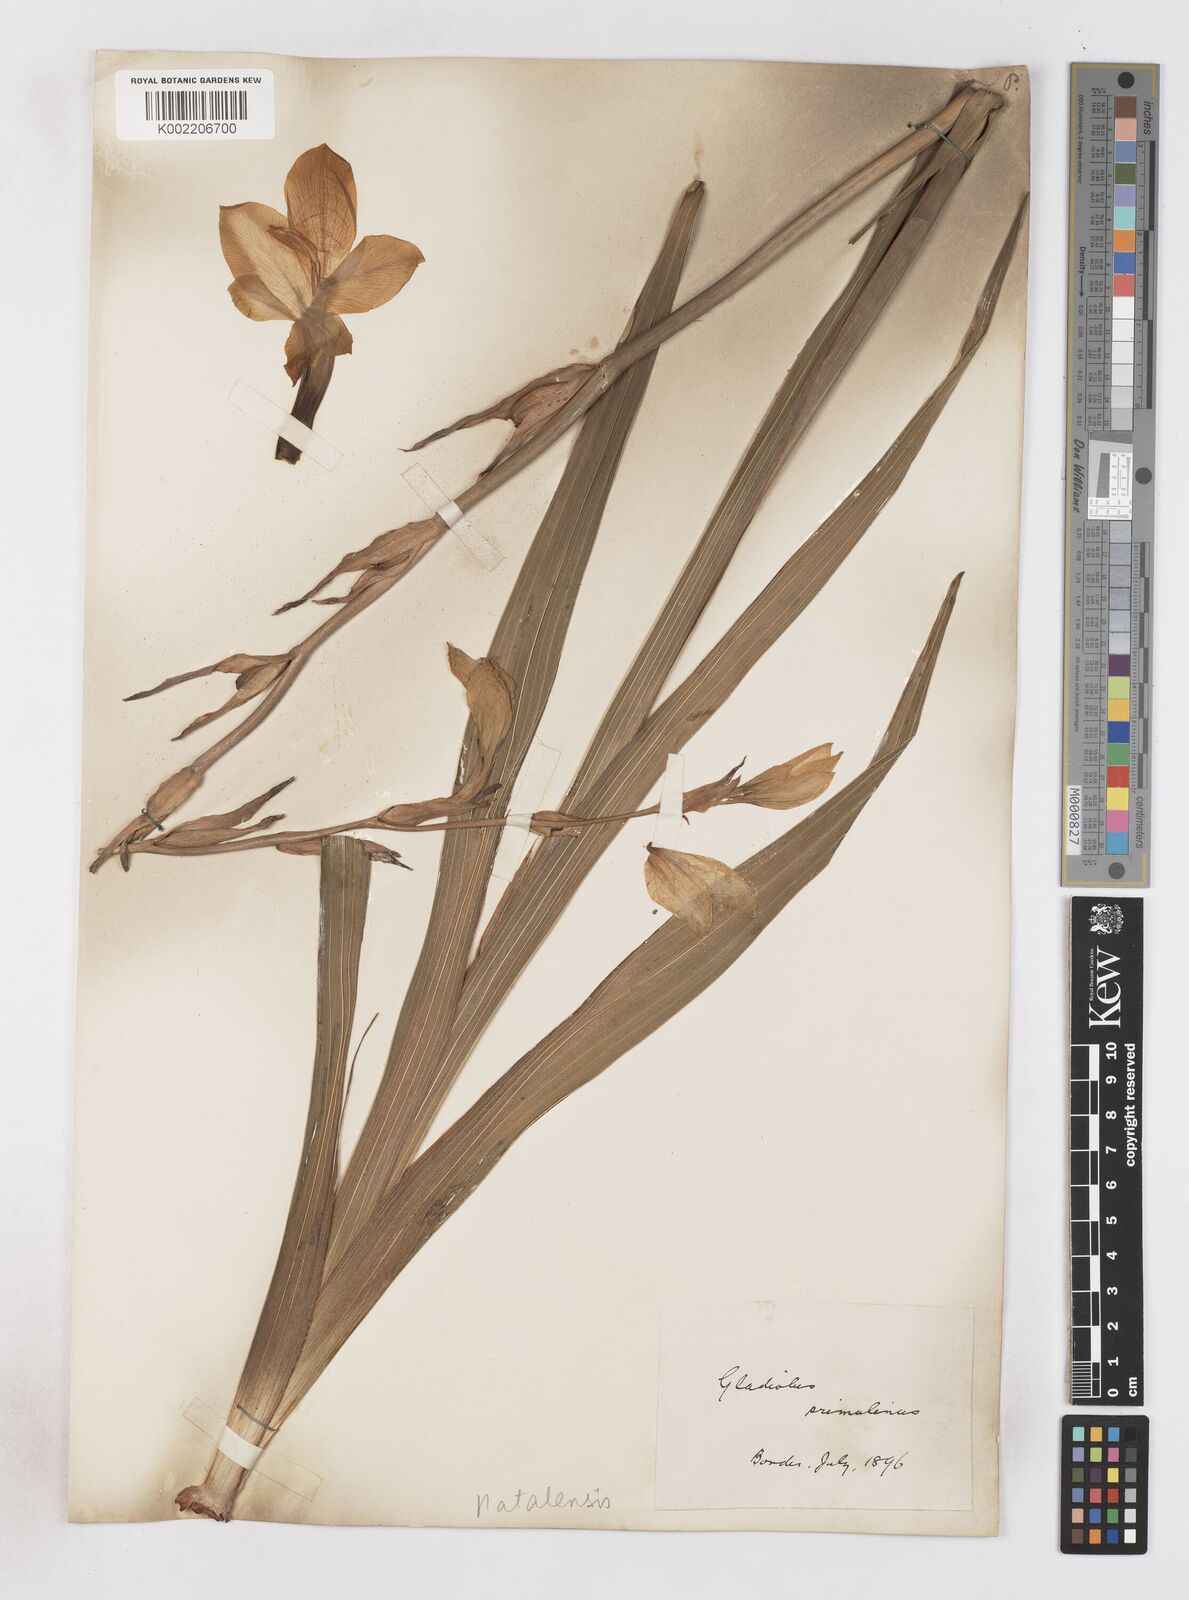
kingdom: Plantae
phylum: Tracheophyta
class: Liliopsida
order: Asparagales
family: Iridaceae
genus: Gladiolus
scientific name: Gladiolus dalenii
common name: Cornflag
